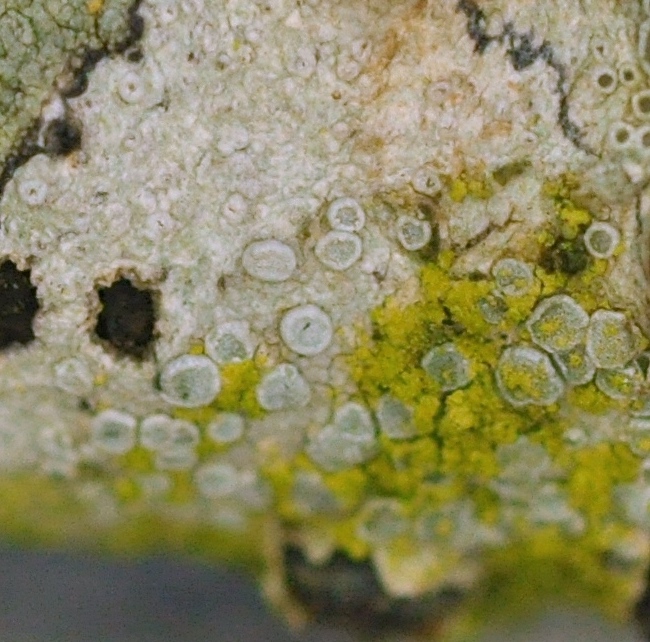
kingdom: Fungi
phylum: Ascomycota
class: Lecanoromycetes
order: Lecanorales
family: Lecanoraceae
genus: Glaucomaria
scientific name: Glaucomaria carpinea
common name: hviddugget kantskivelav
